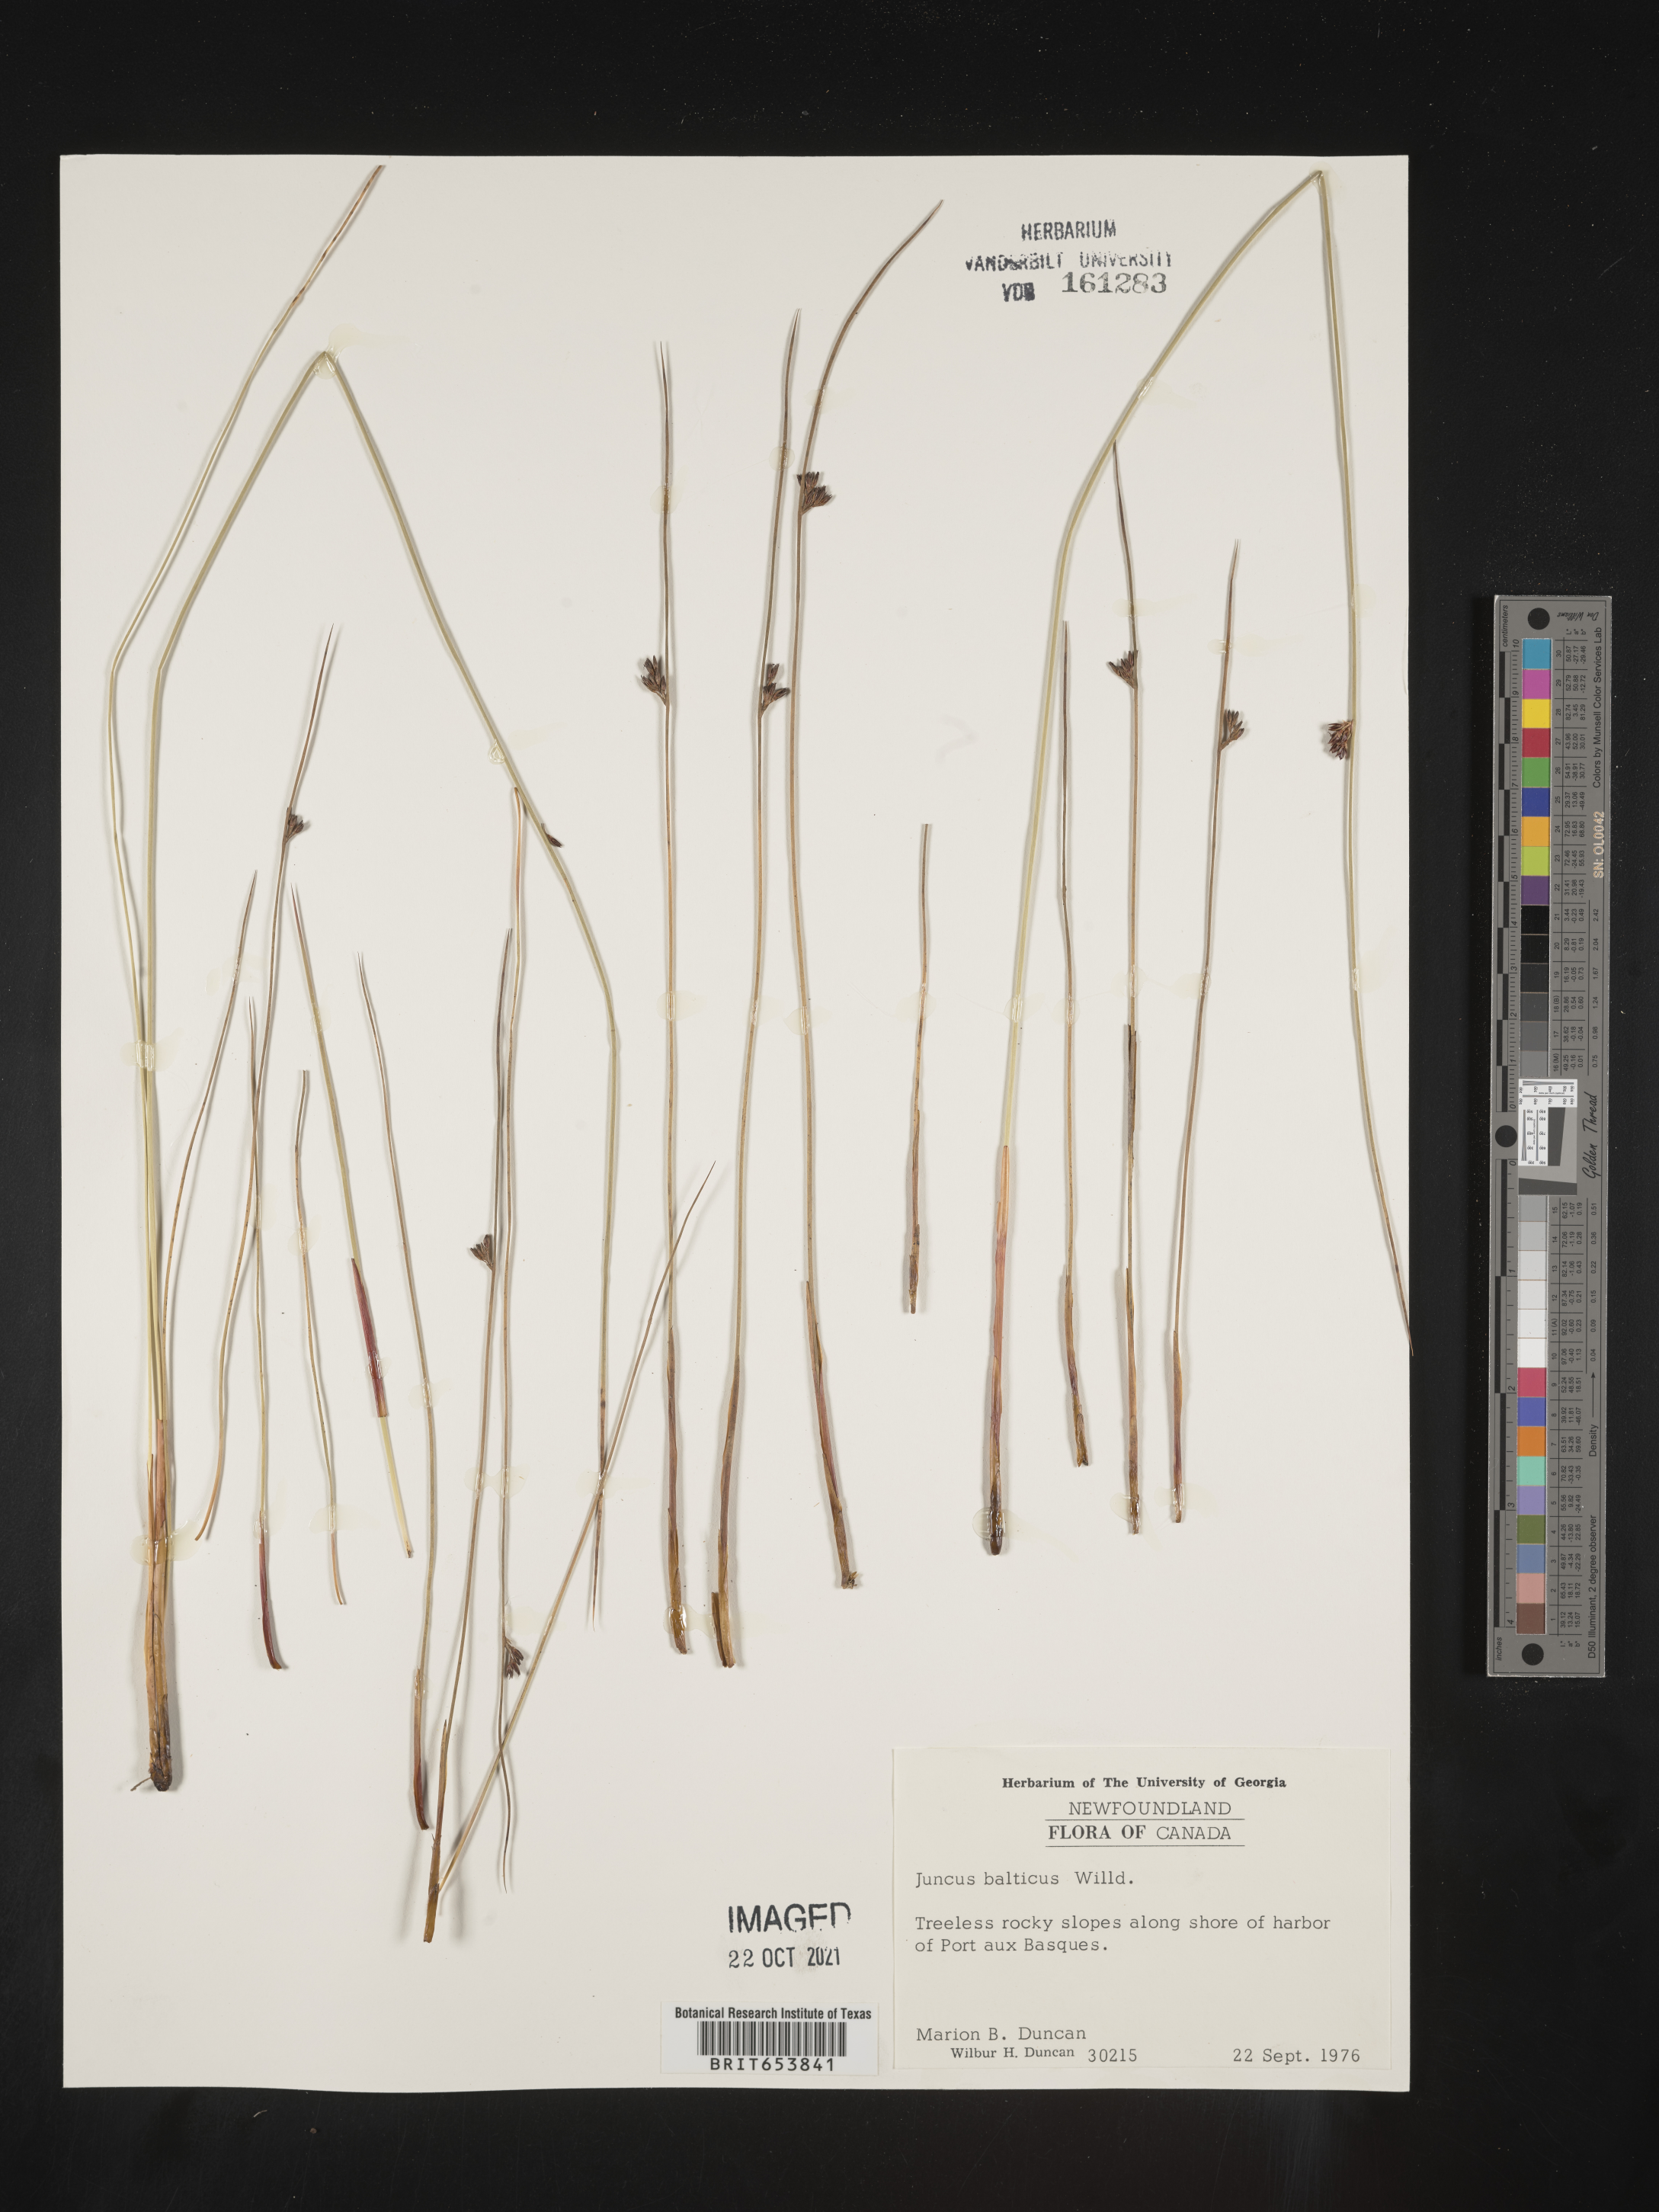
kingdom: Plantae
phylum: Tracheophyta
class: Liliopsida
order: Poales
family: Juncaceae
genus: Juncus
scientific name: Juncus
